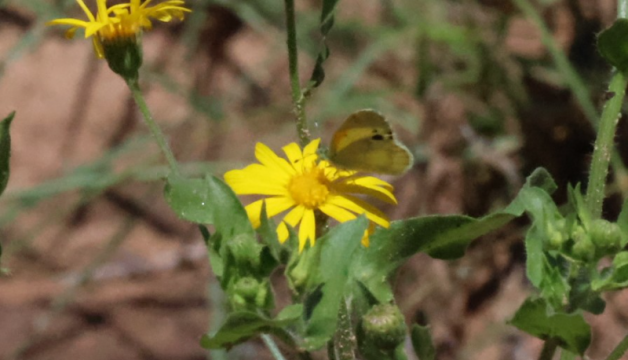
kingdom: Animalia
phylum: Arthropoda
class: Insecta
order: Lepidoptera
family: Pieridae
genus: Nathalis
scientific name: Nathalis iole
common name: Dainty Sulphur
